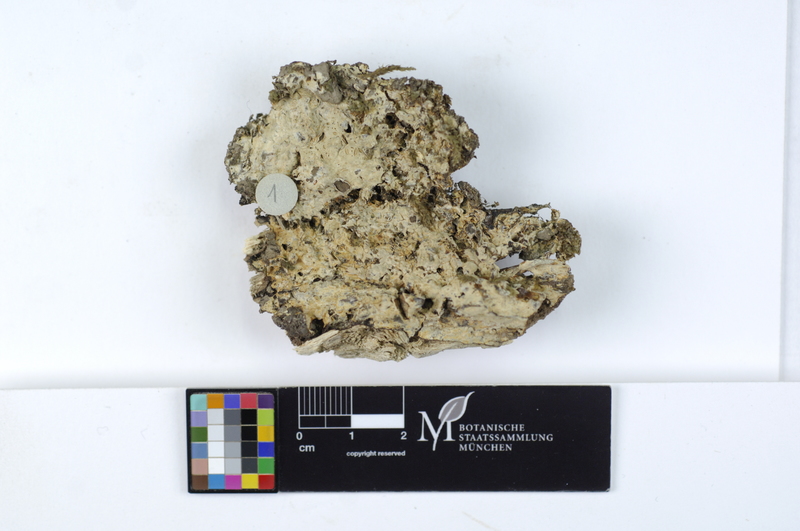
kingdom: Fungi
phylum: Basidiomycota
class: Agaricomycetes
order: Russulales
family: Peniophoraceae
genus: Gloiothele
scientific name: Gloiothele lactescens
